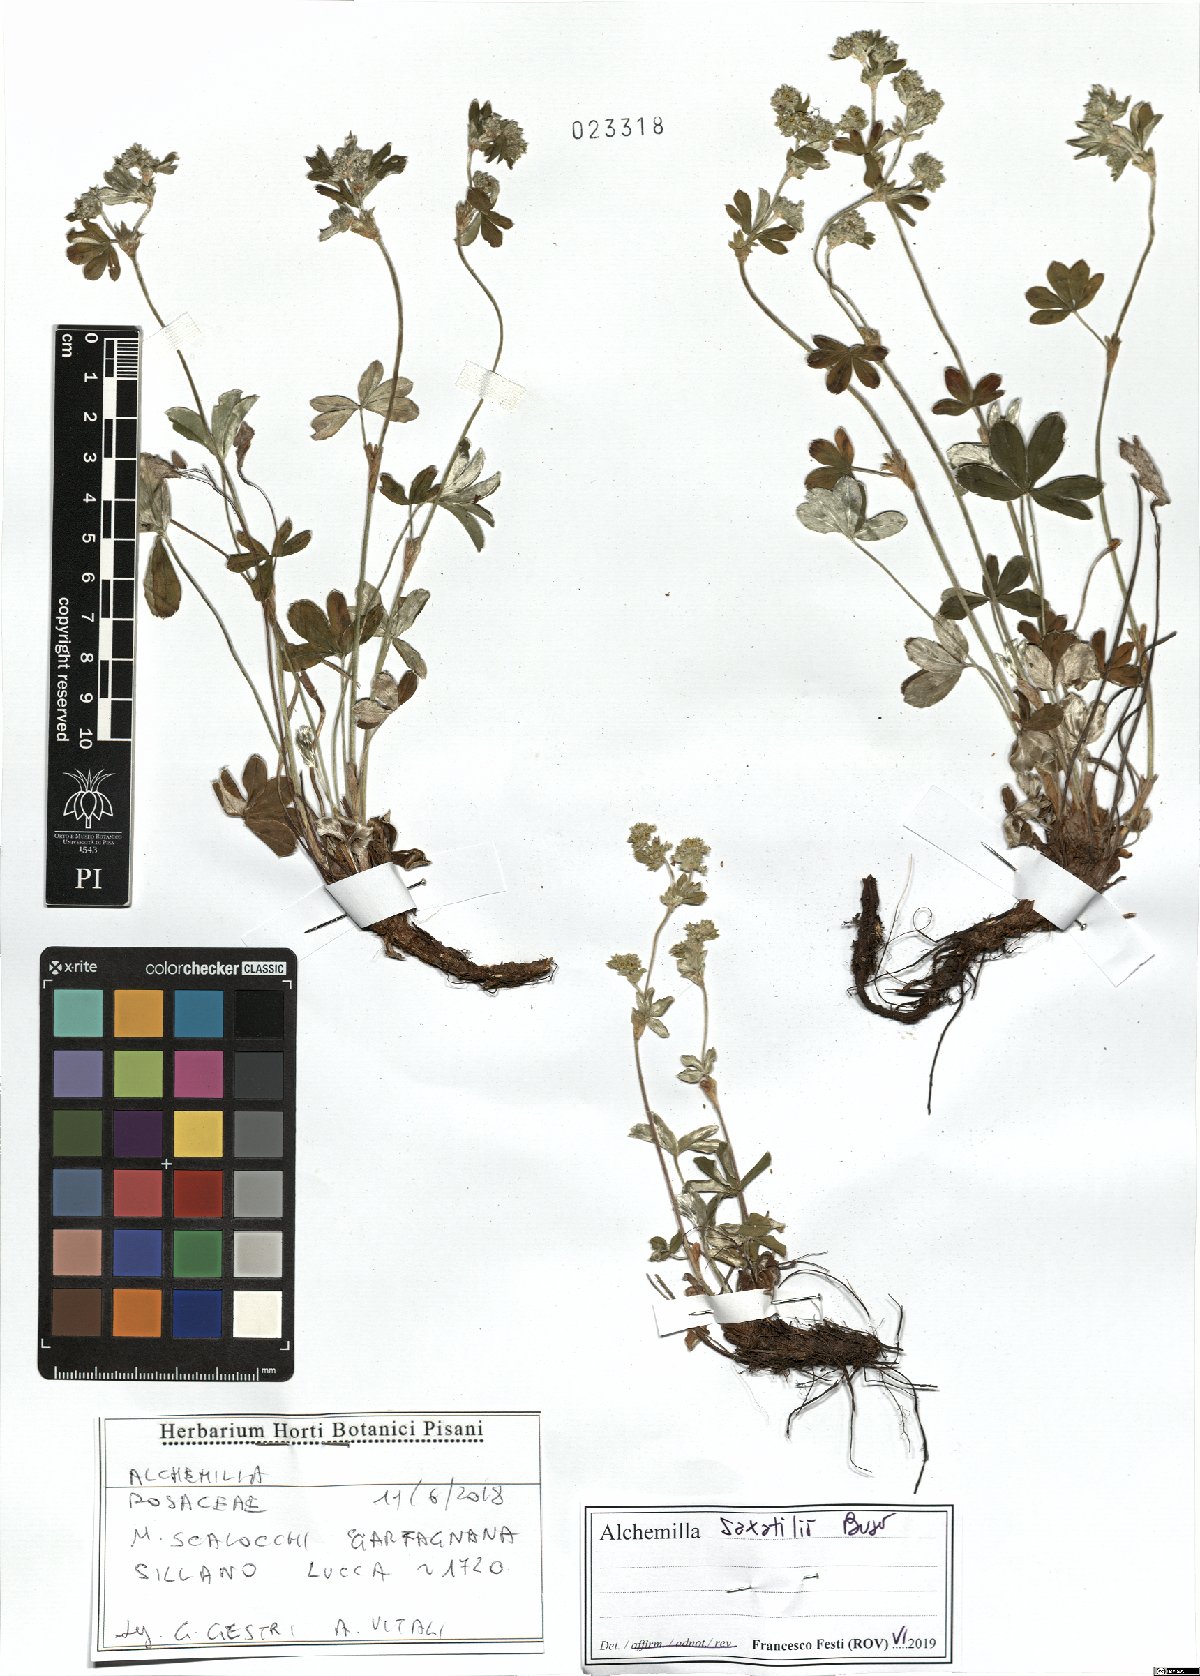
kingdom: Plantae
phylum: Tracheophyta
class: Magnoliopsida
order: Rosales
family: Rosaceae
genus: Alchemilla
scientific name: Alchemilla saxatilis
